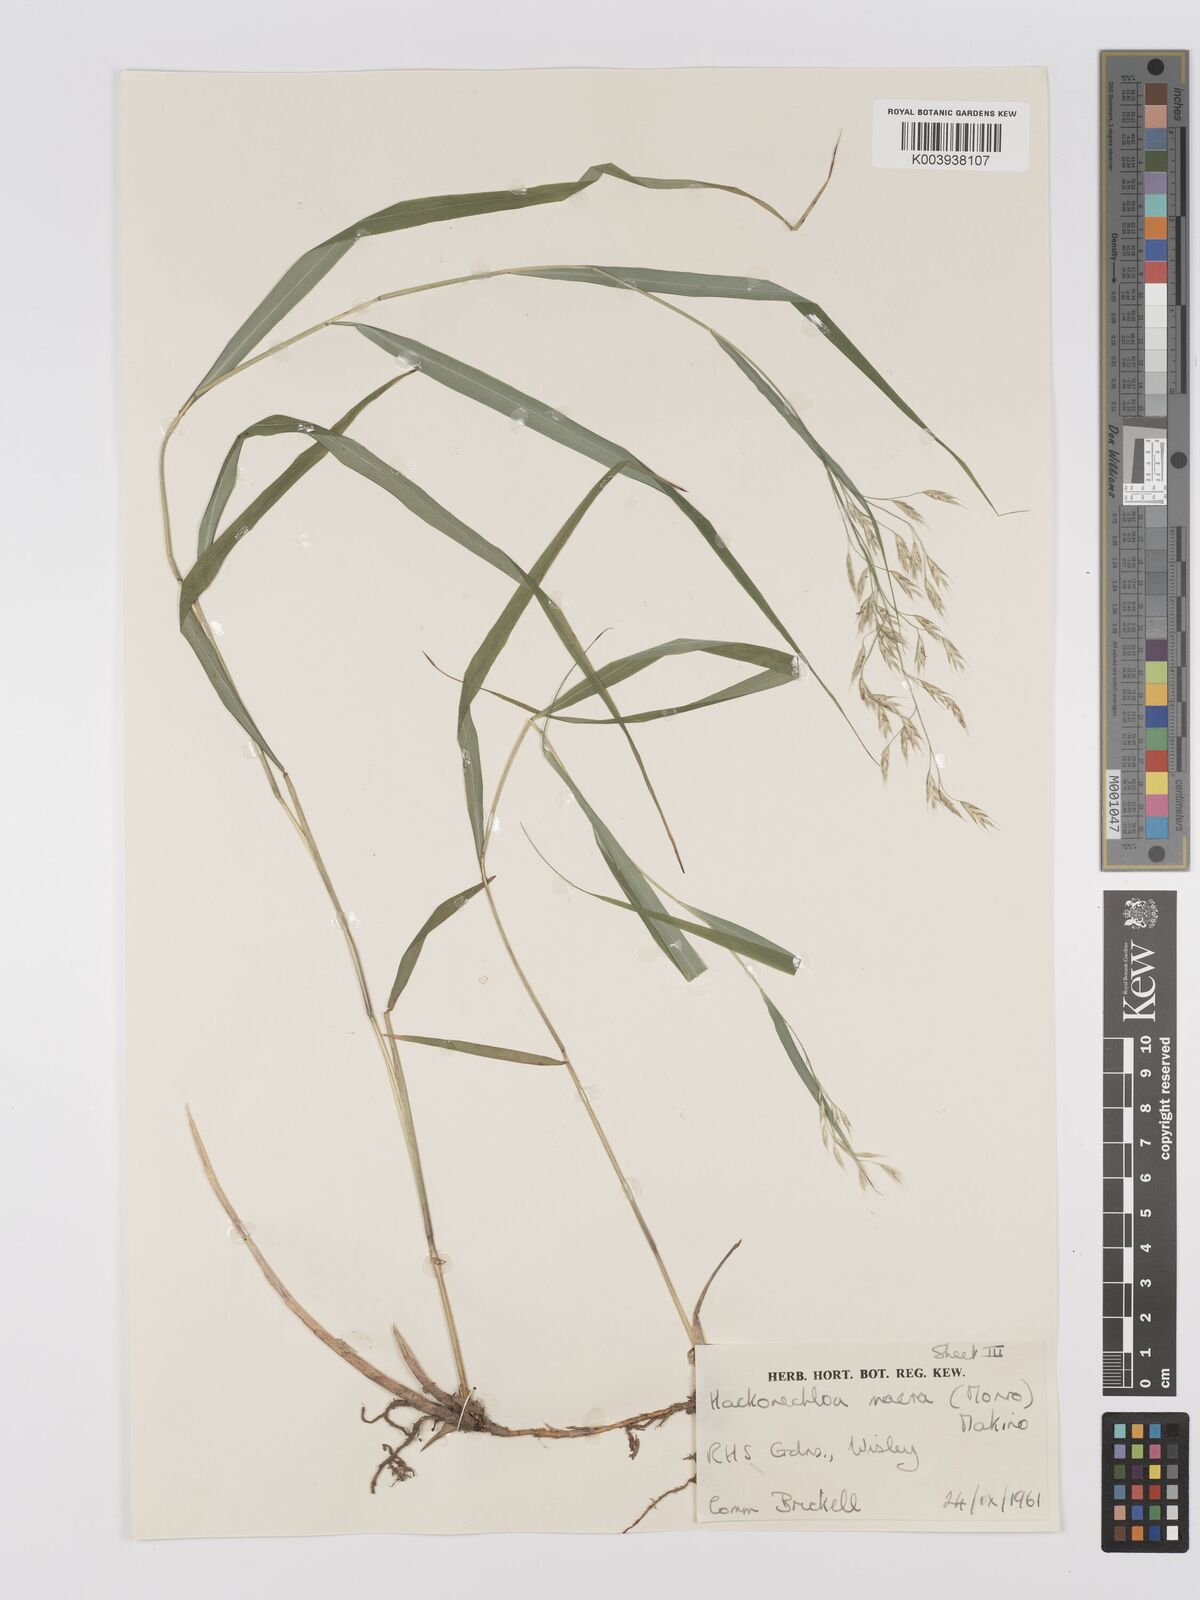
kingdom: Plantae
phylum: Tracheophyta
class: Liliopsida
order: Poales
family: Poaceae
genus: Hakonechloa
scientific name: Hakonechloa macra
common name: Hakone grass
